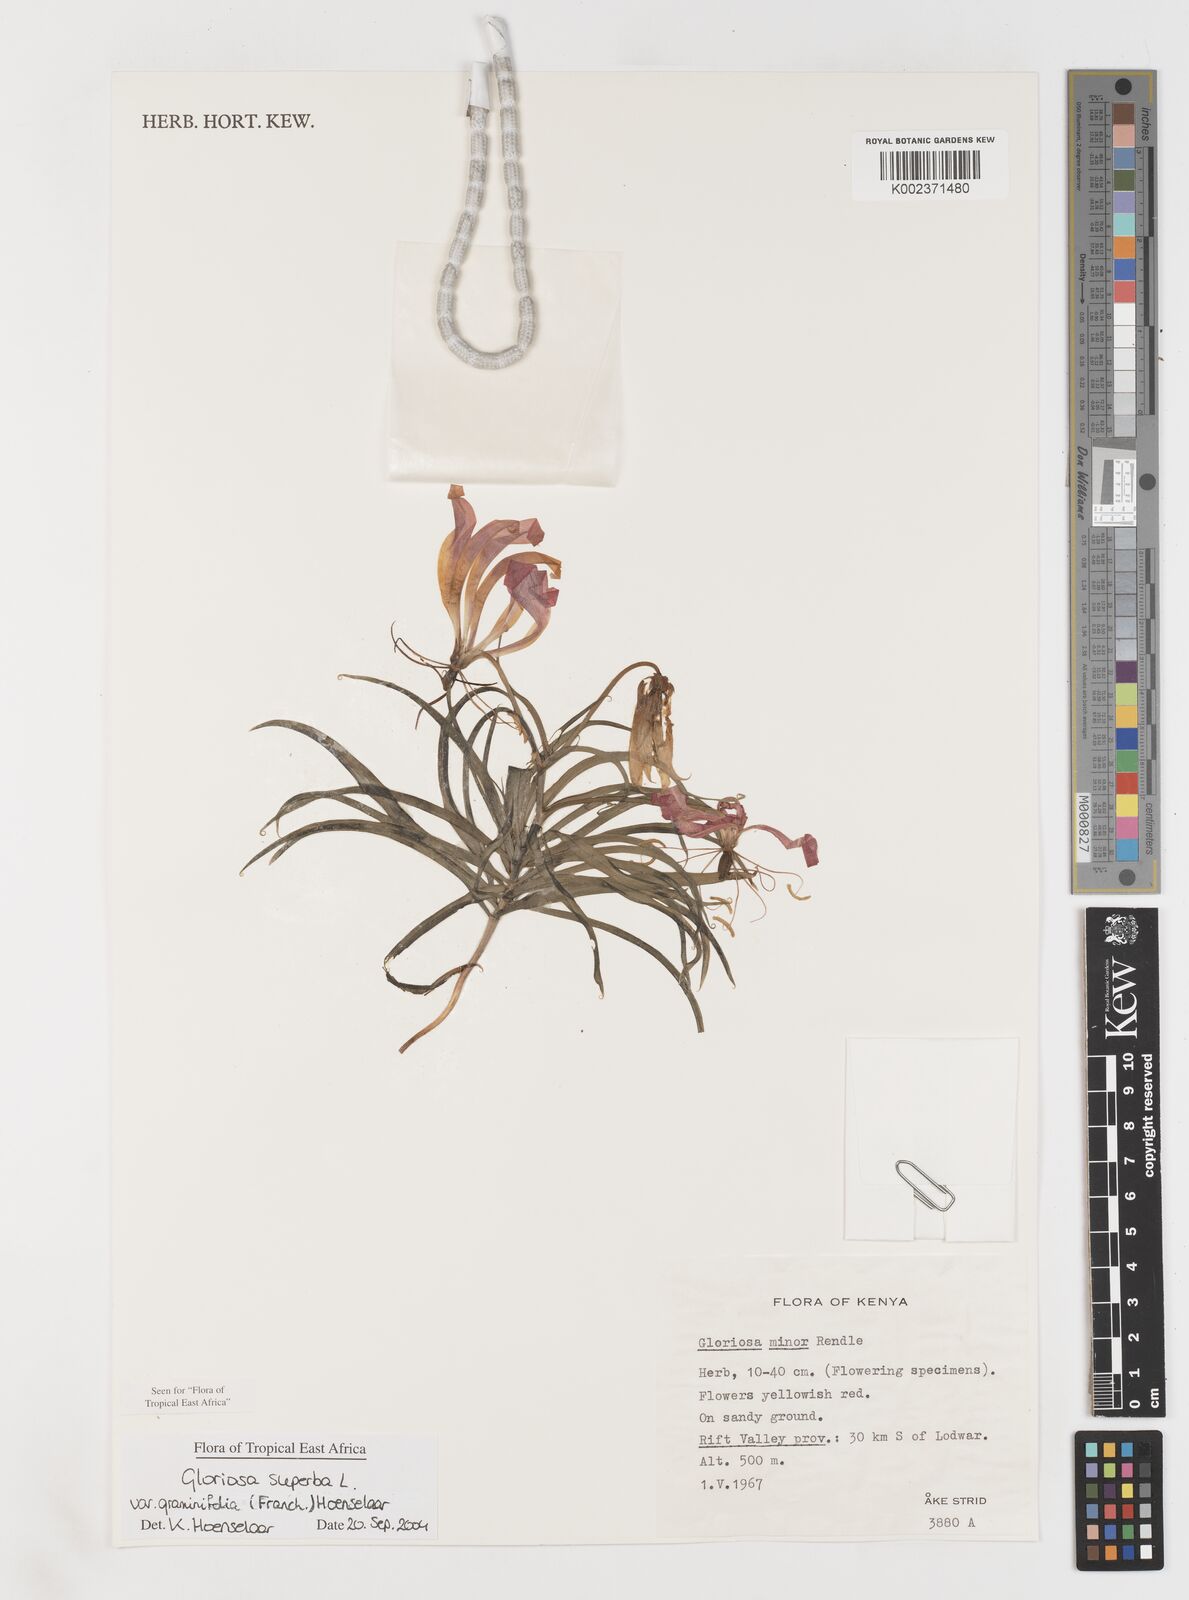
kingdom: Plantae
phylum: Tracheophyta
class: Liliopsida
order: Liliales
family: Colchicaceae
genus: Gloriosa
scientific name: Gloriosa baudii
